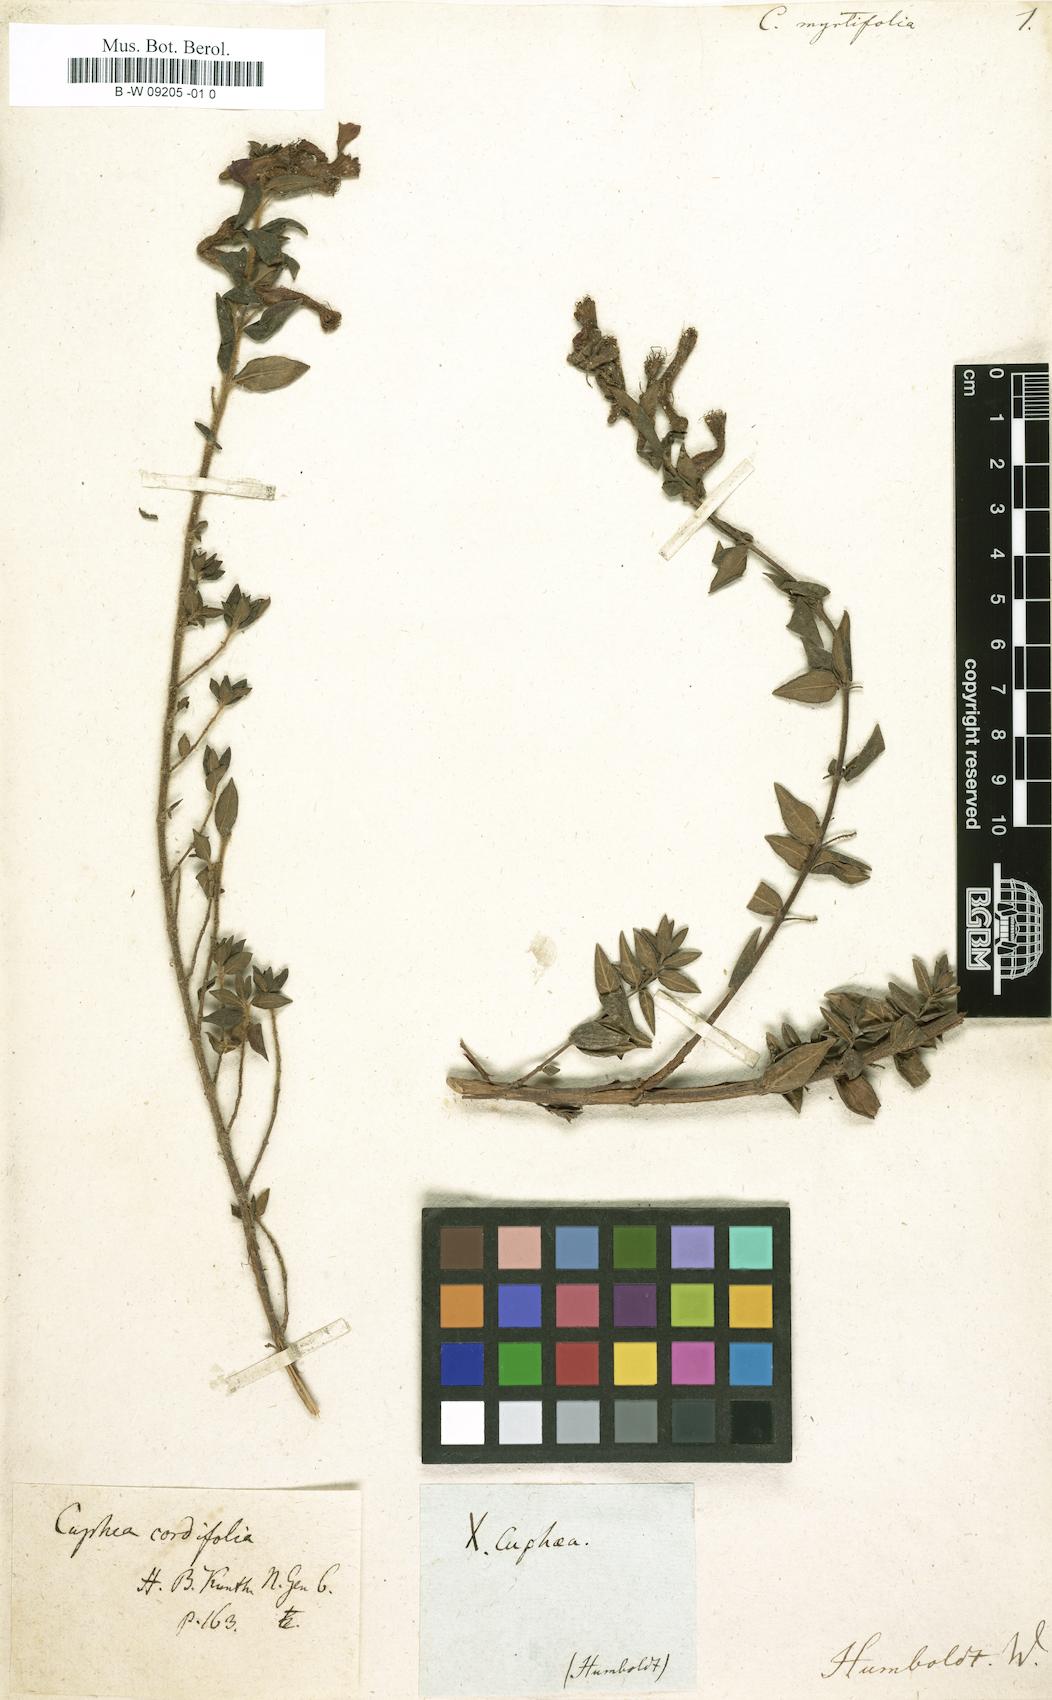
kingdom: Plantae
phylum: Tracheophyta
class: Magnoliopsida
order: Myrtales
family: Lythraceae
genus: Cuphea
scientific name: Cuphea myrtifolia
